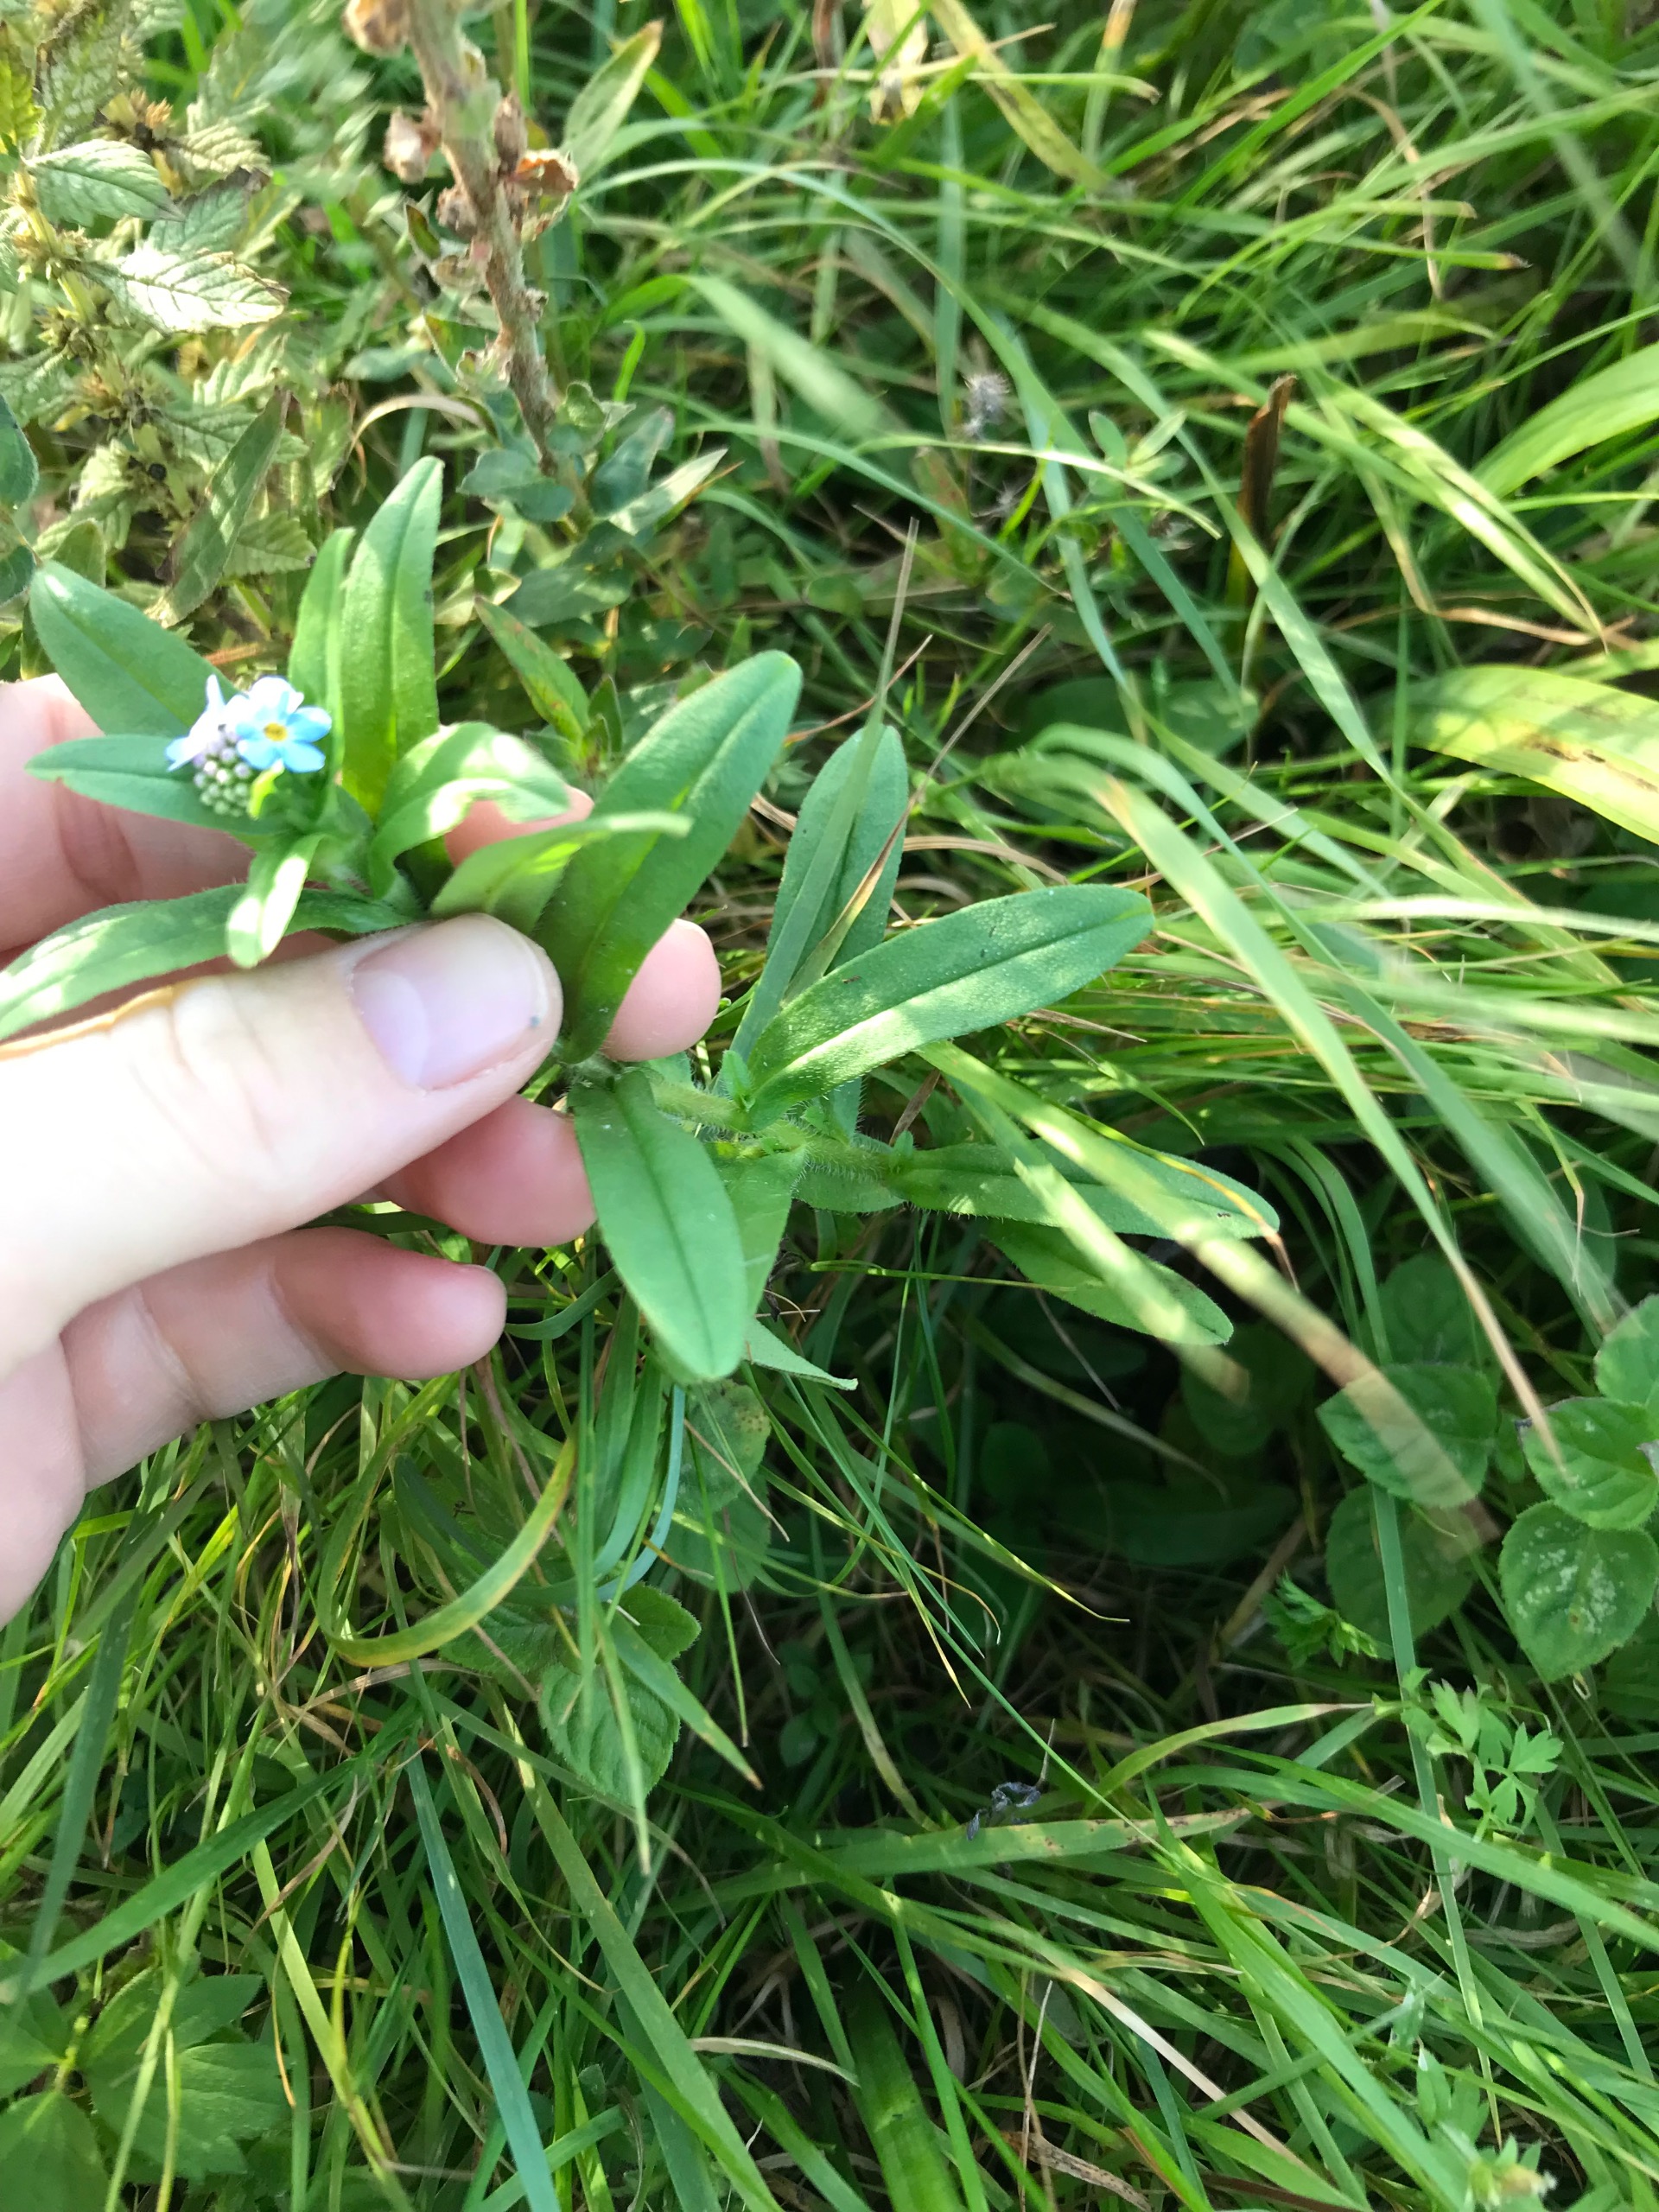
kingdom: Plantae
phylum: Tracheophyta
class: Magnoliopsida
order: Boraginales
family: Boraginaceae
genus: Myosotis
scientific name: Myosotis scorpioides
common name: Eng-forglemmigej
